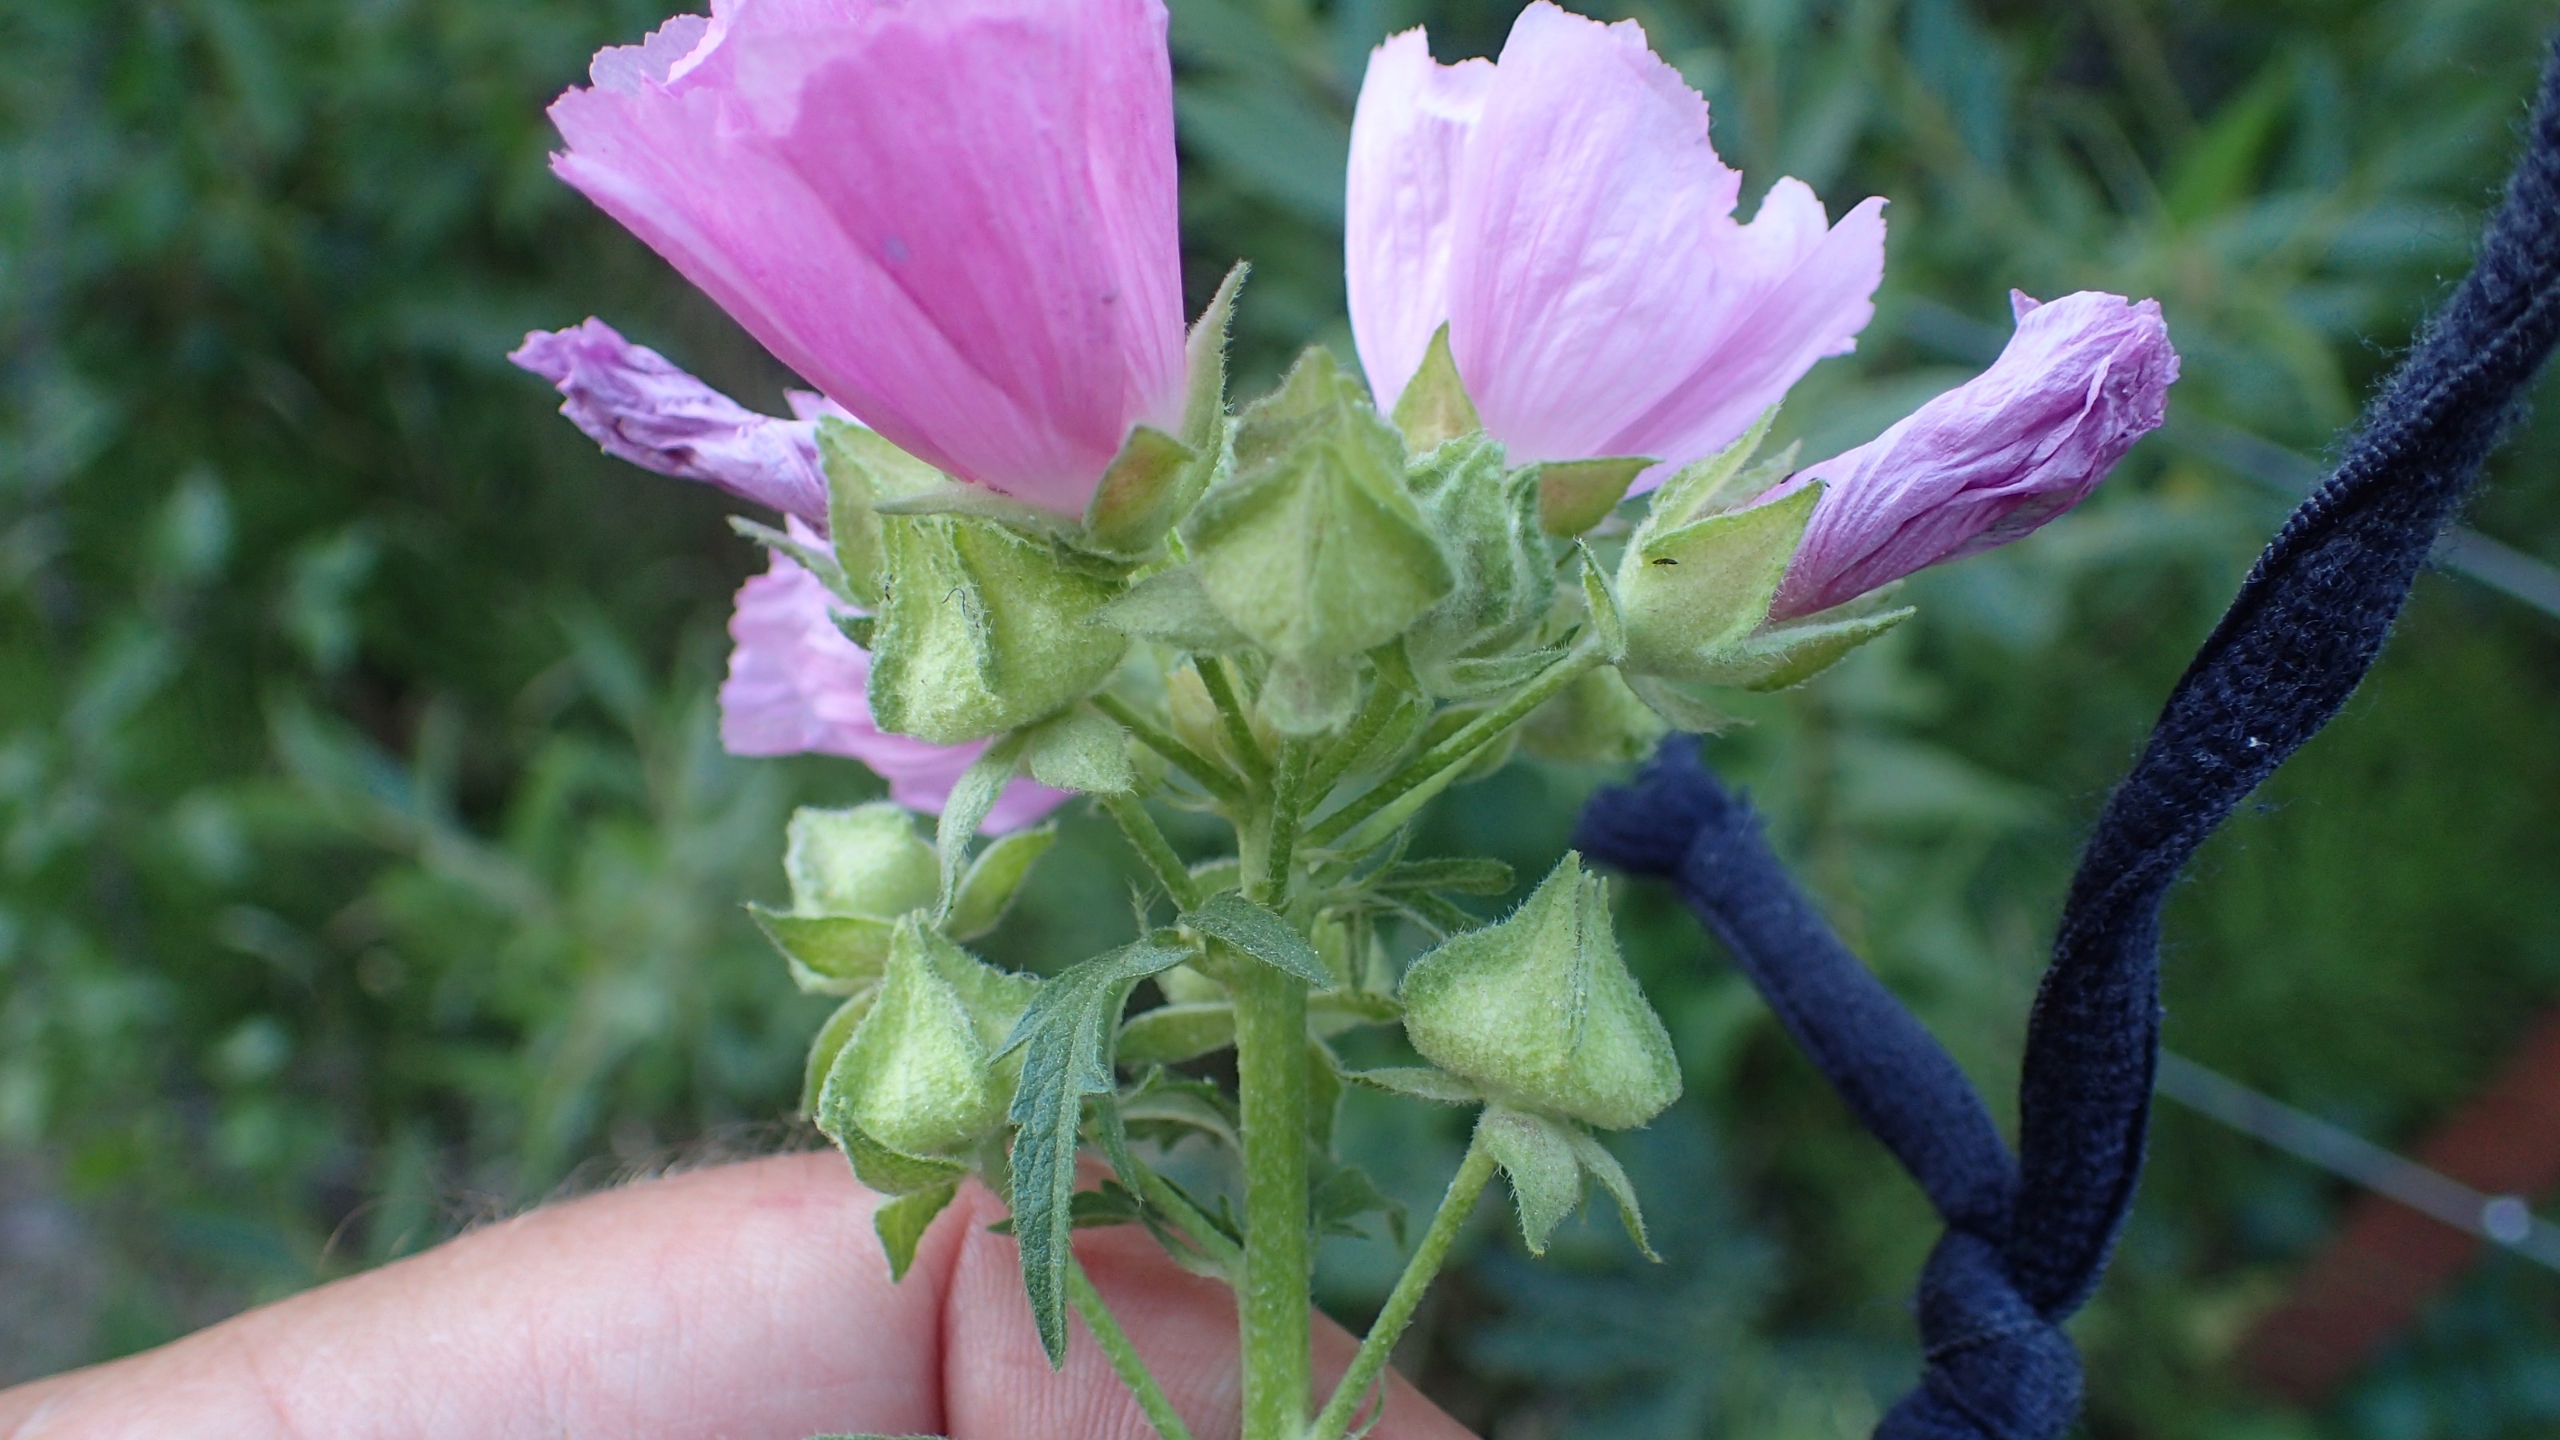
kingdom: Plantae
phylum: Tracheophyta
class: Magnoliopsida
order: Malvales
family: Malvaceae
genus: Malva
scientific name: Malva alcea
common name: Rosen-katost
